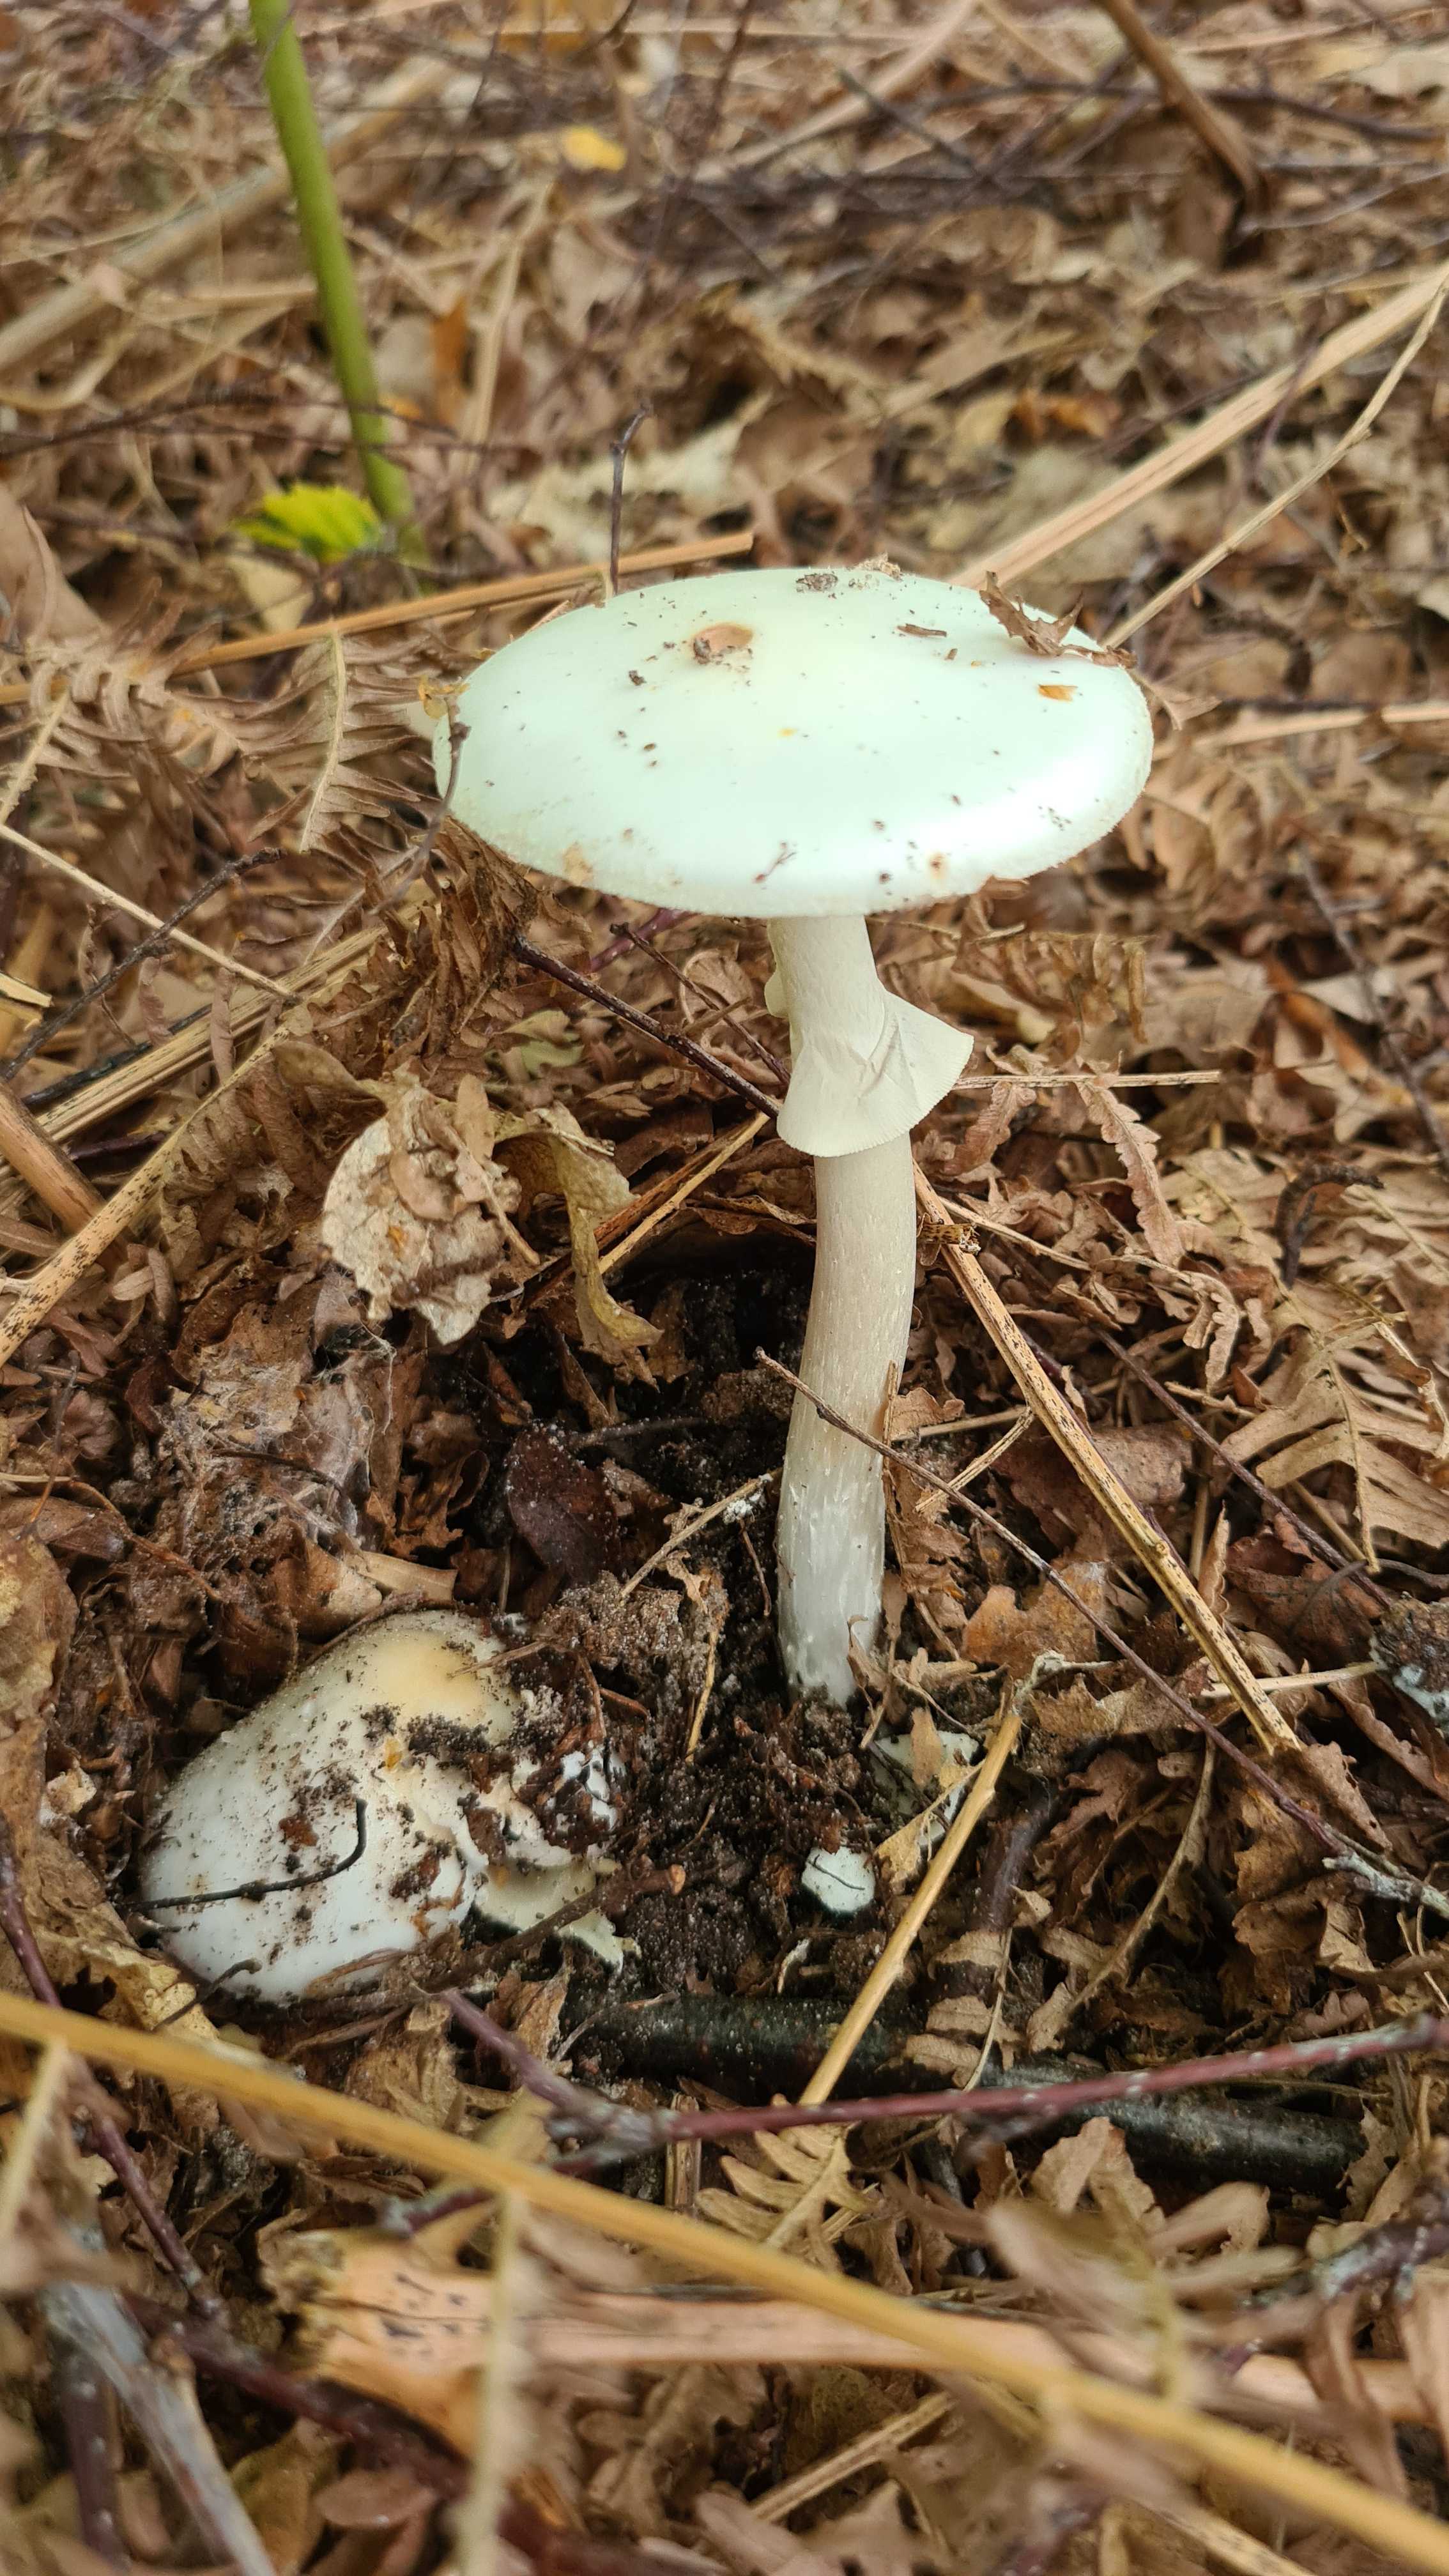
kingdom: Fungi
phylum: Basidiomycota
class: Agaricomycetes
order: Agaricales
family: Amanitaceae
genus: Amanita
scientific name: Amanita citrina
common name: kugleknoldet fluesvamp
